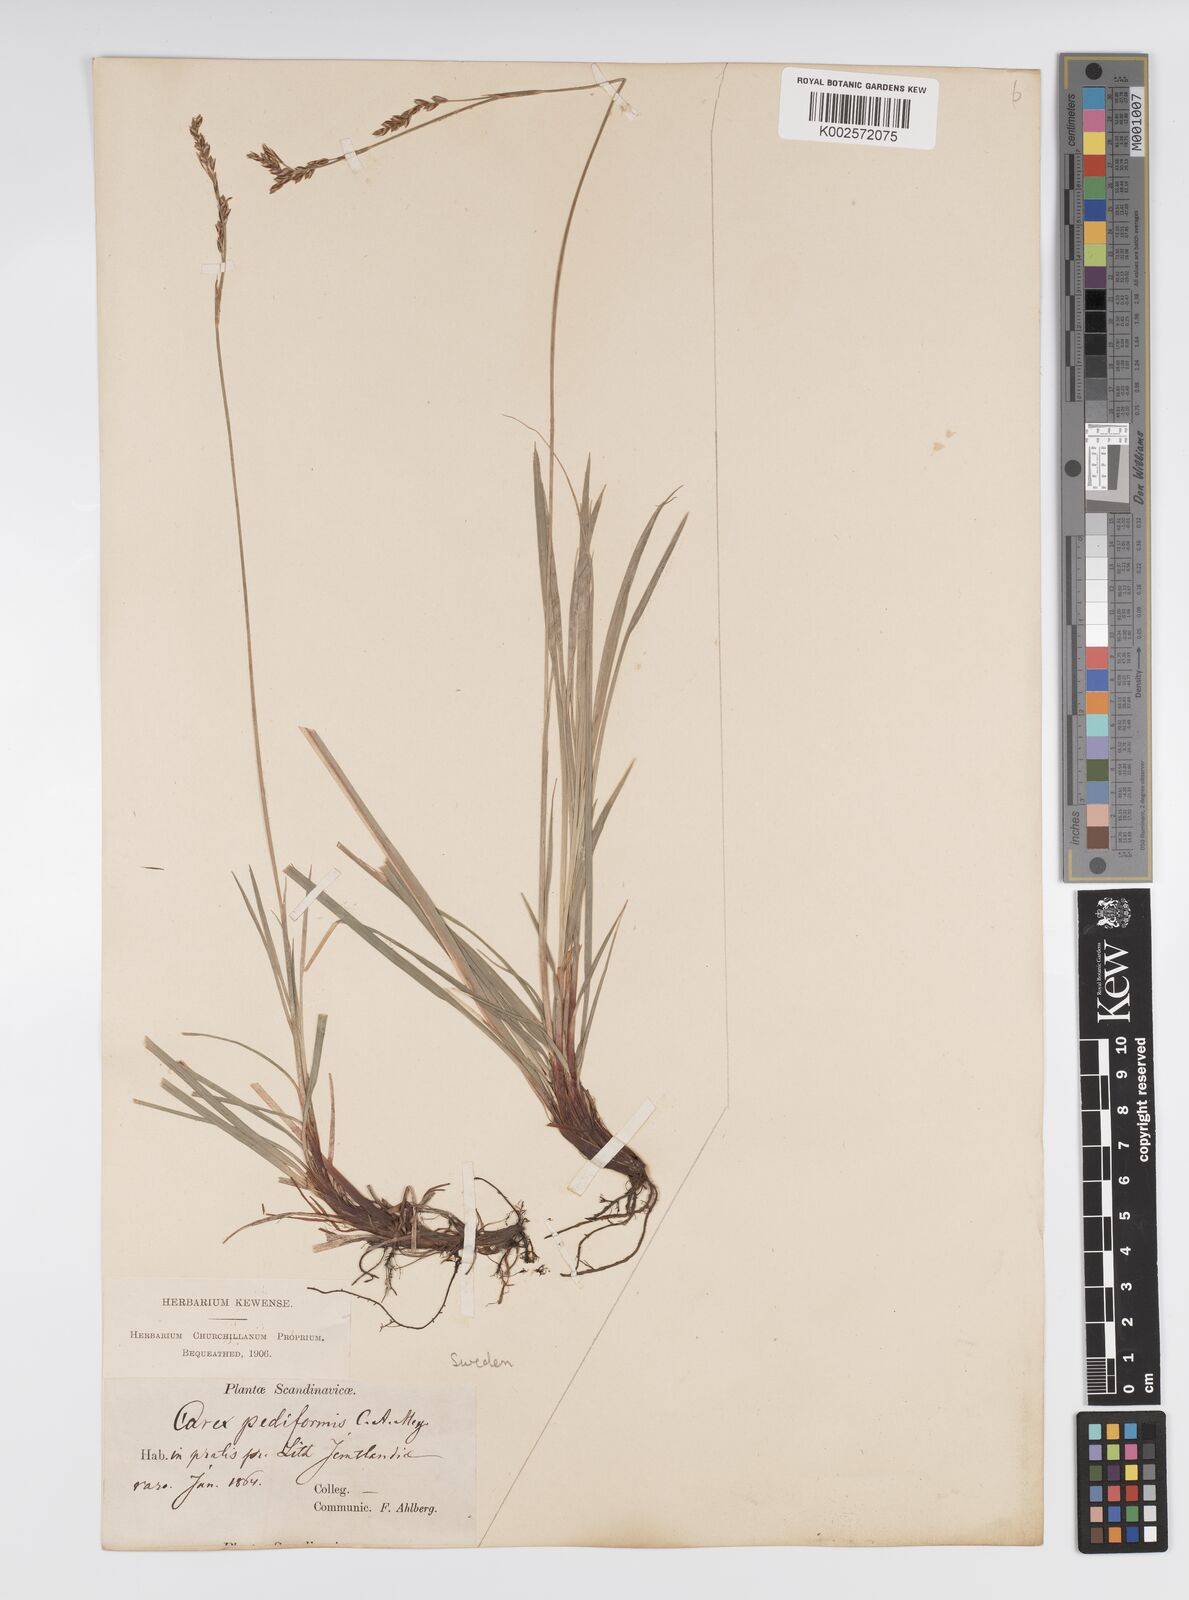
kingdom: Plantae
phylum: Tracheophyta
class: Liliopsida
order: Poales
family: Cyperaceae
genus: Carex
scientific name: Carex pediformis
